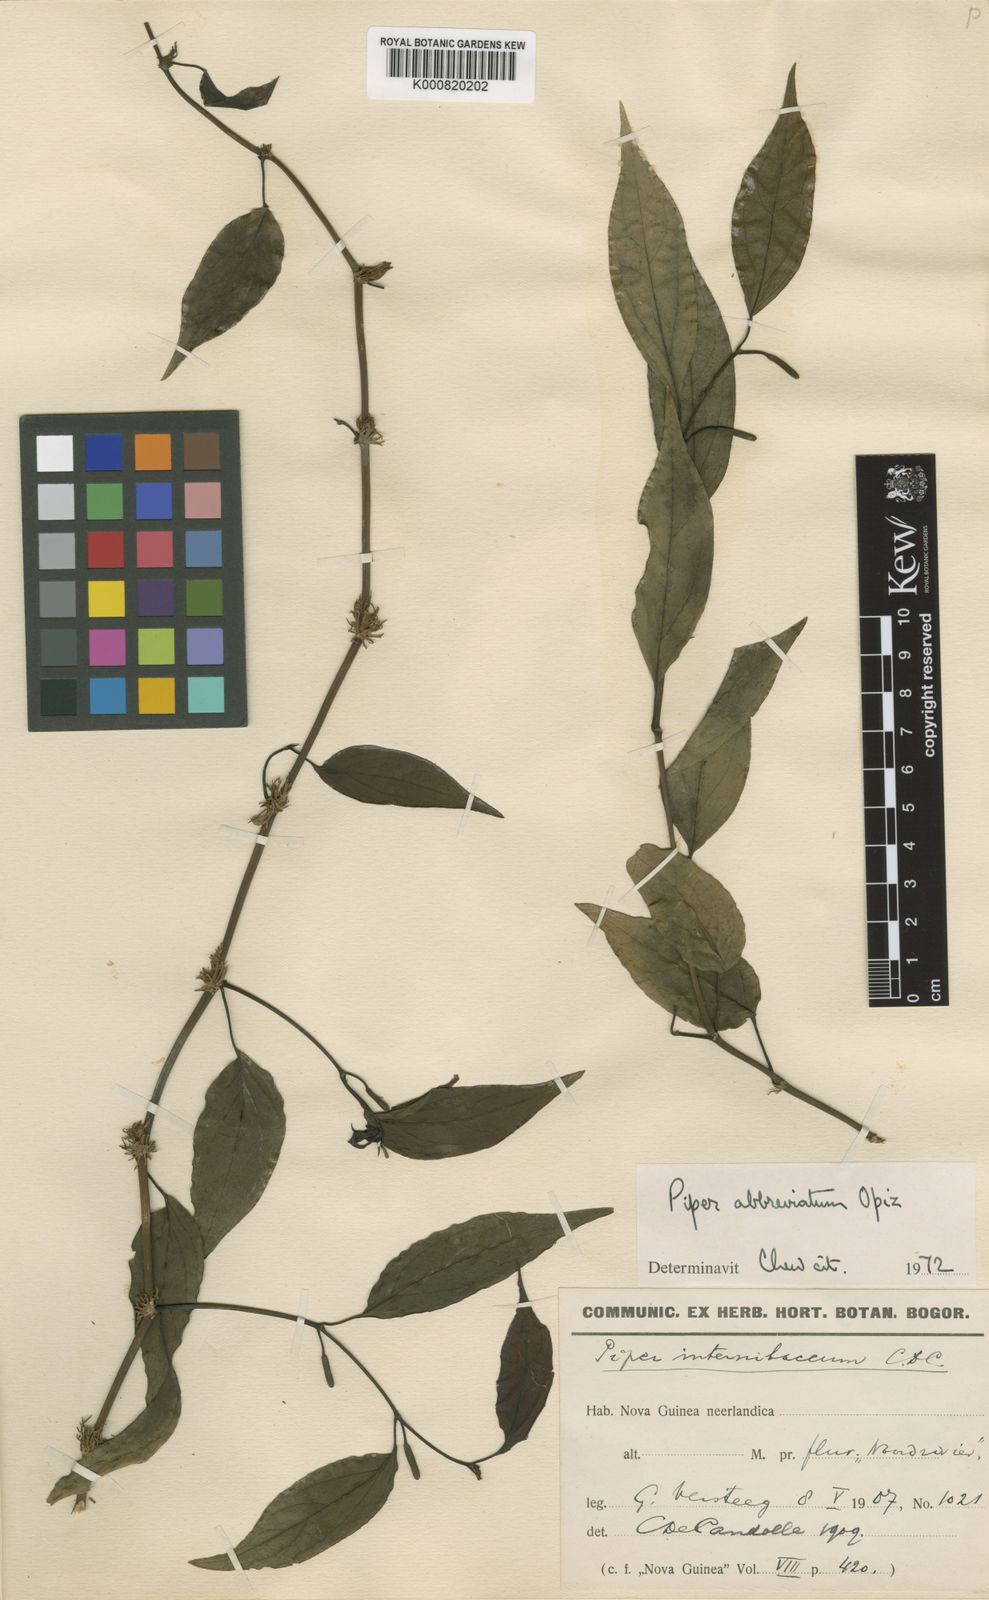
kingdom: Plantae
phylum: Tracheophyta
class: Magnoliopsida
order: Piperales
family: Piperaceae
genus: Piper
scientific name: Piper abbreviatum
